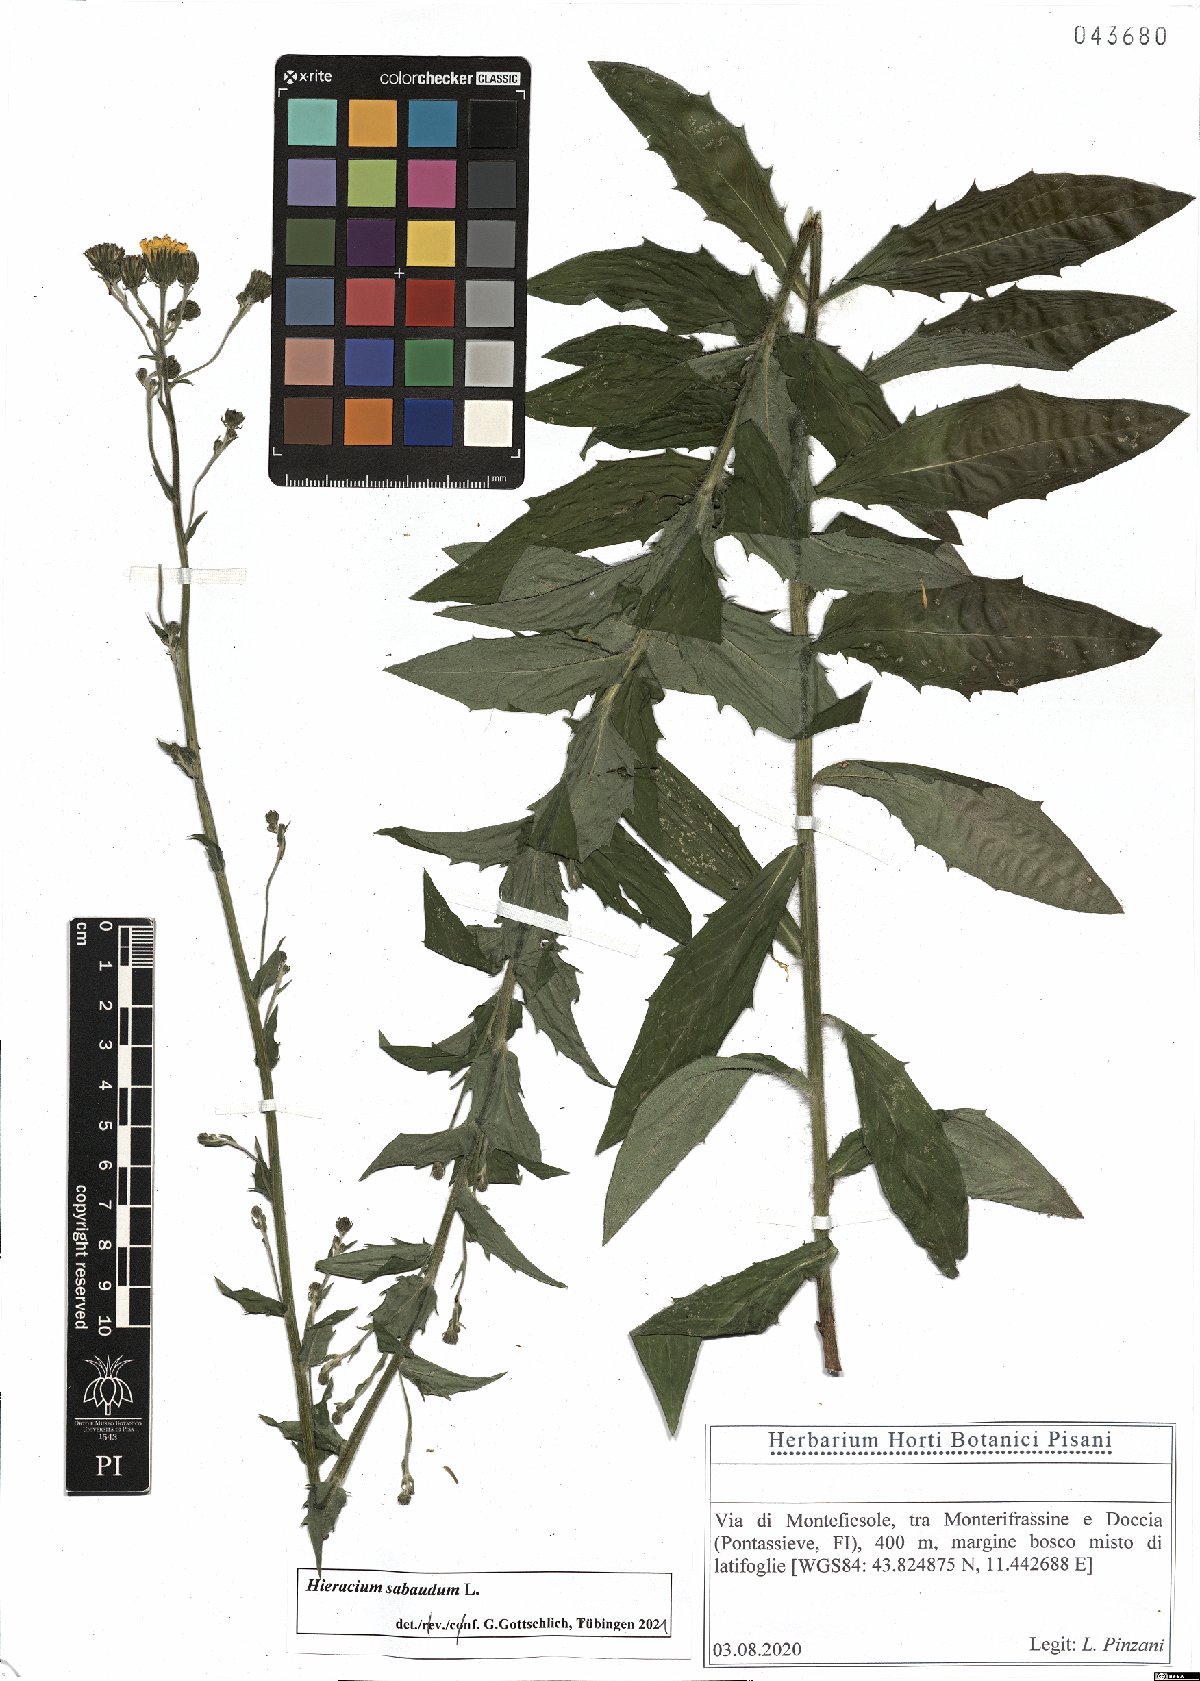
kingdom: Plantae
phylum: Tracheophyta
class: Magnoliopsida
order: Asterales
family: Asteraceae
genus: Hieracium
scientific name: Hieracium sabaudum
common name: New england hawkweed
